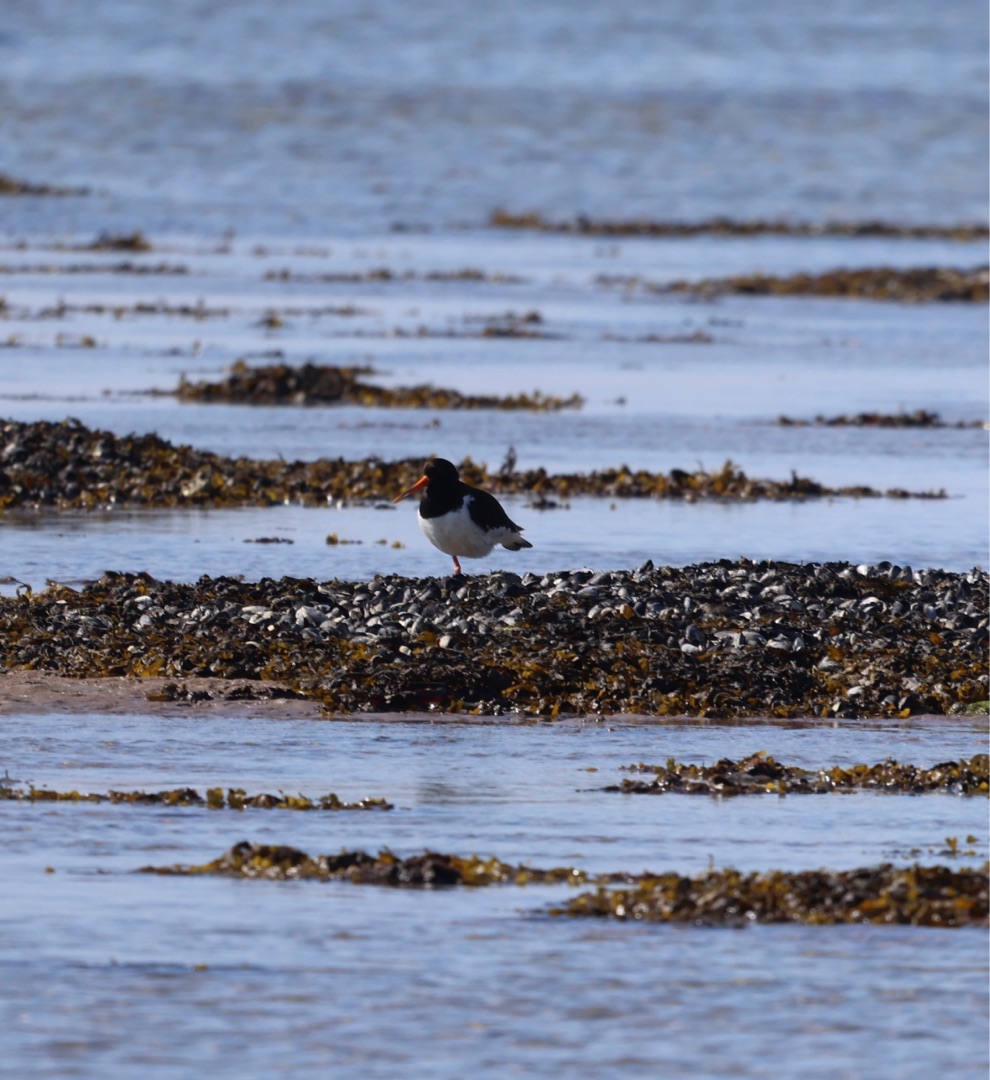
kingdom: Animalia
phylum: Chordata
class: Aves
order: Charadriiformes
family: Haematopodidae
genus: Haematopus
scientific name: Haematopus ostralegus
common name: Strandskade
